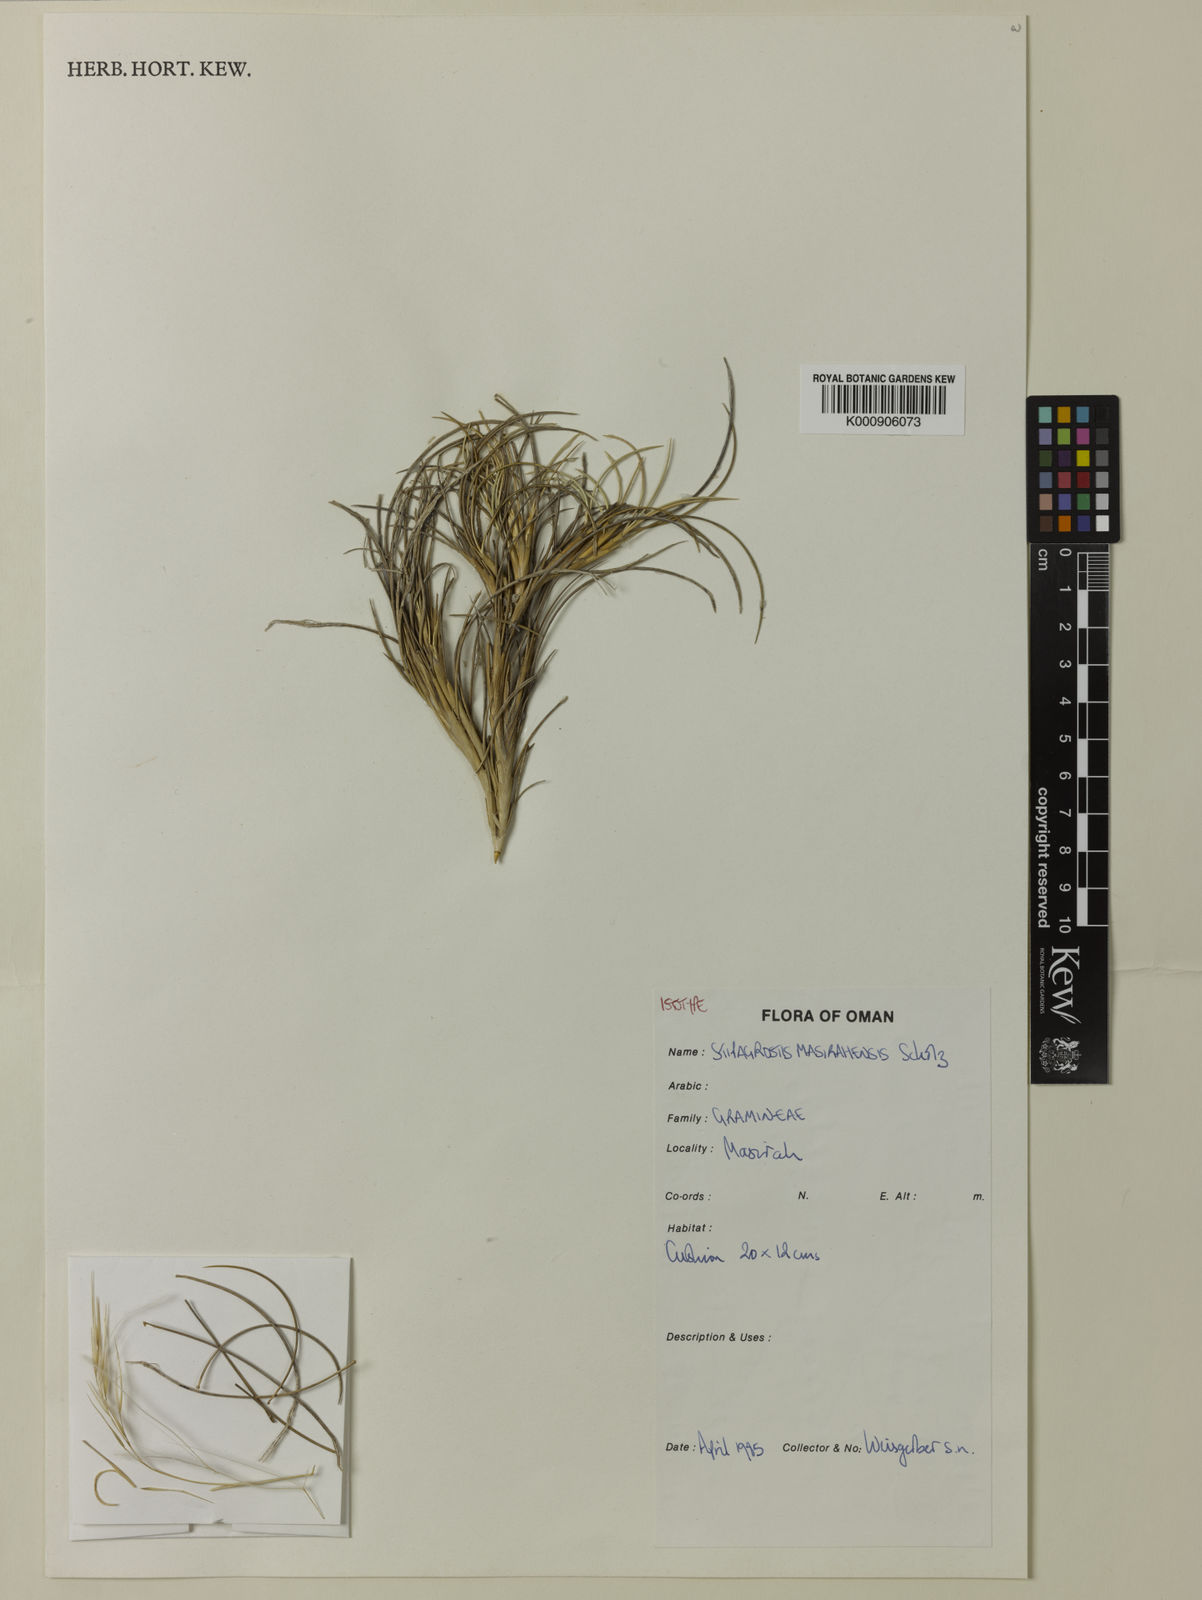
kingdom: Plantae
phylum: Tracheophyta
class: Liliopsida
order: Poales
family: Poaceae
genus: Stipagrostis
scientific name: Stipagrostis masirahensis
